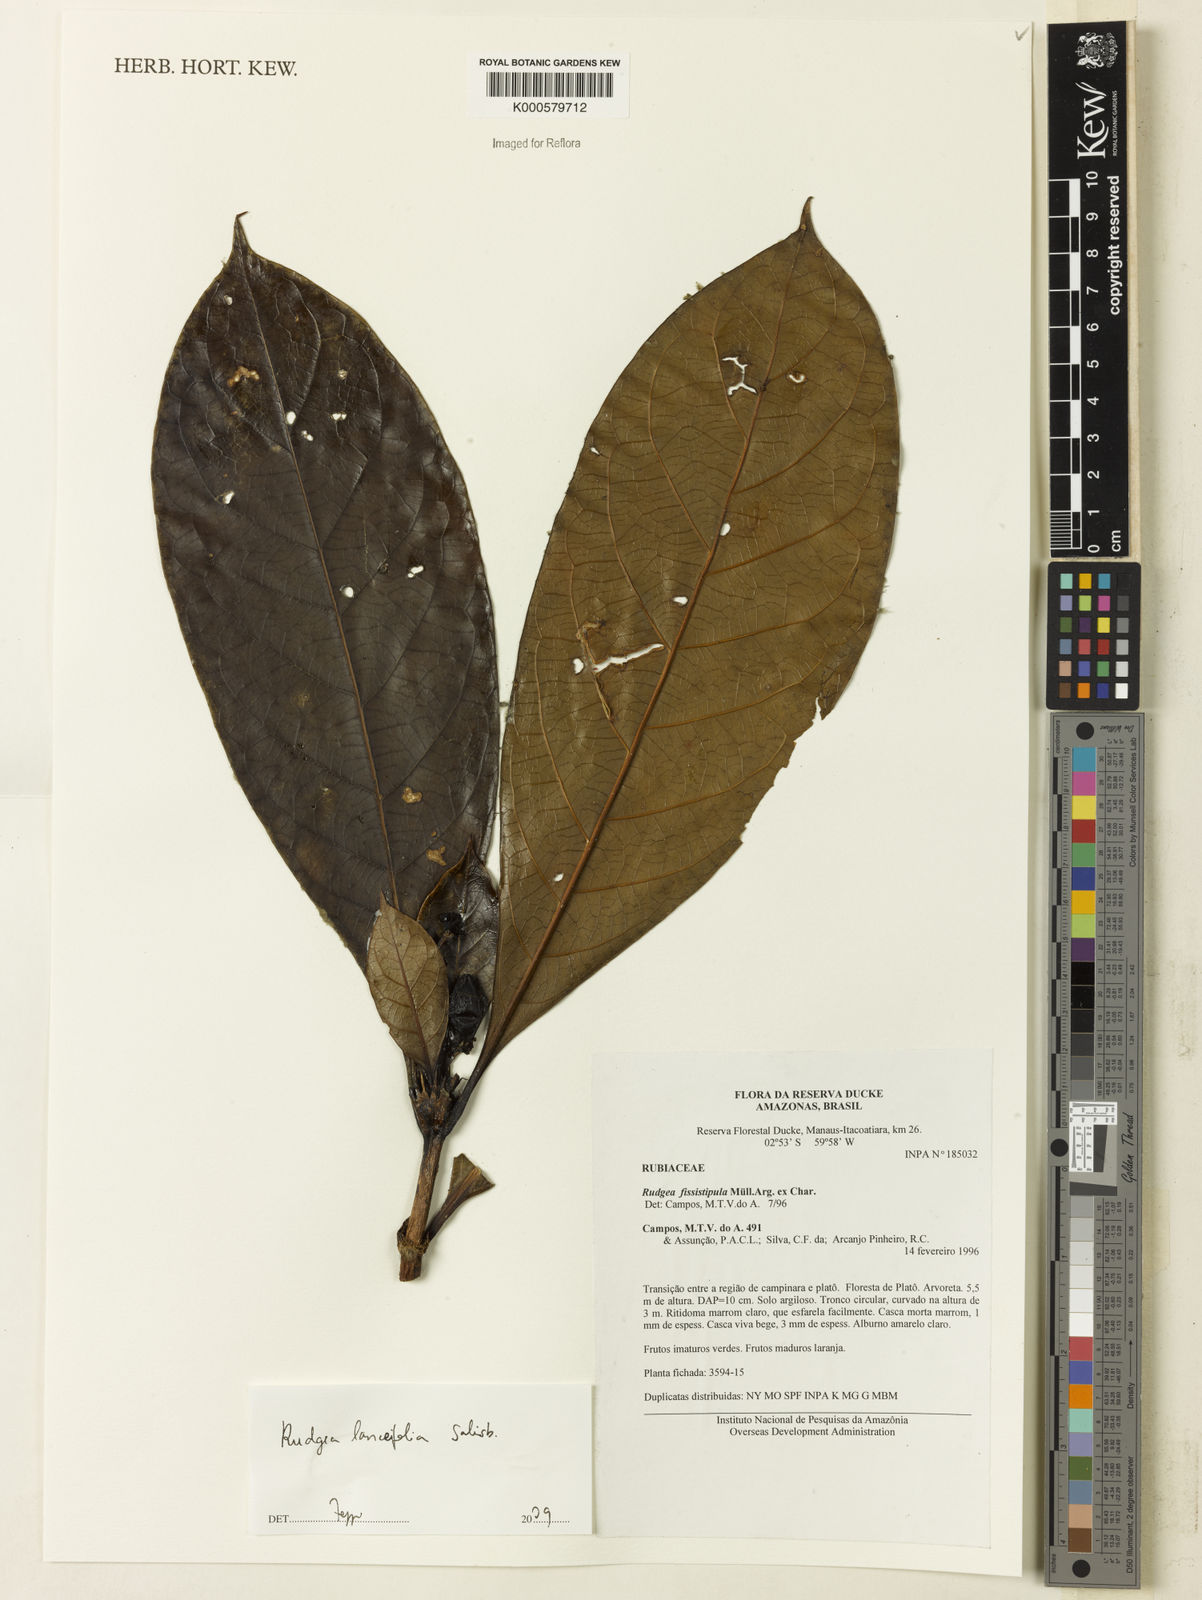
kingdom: Plantae
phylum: Tracheophyta
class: Magnoliopsida
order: Gentianales
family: Rubiaceae
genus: Rudgea
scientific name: Rudgea lanceifolia
